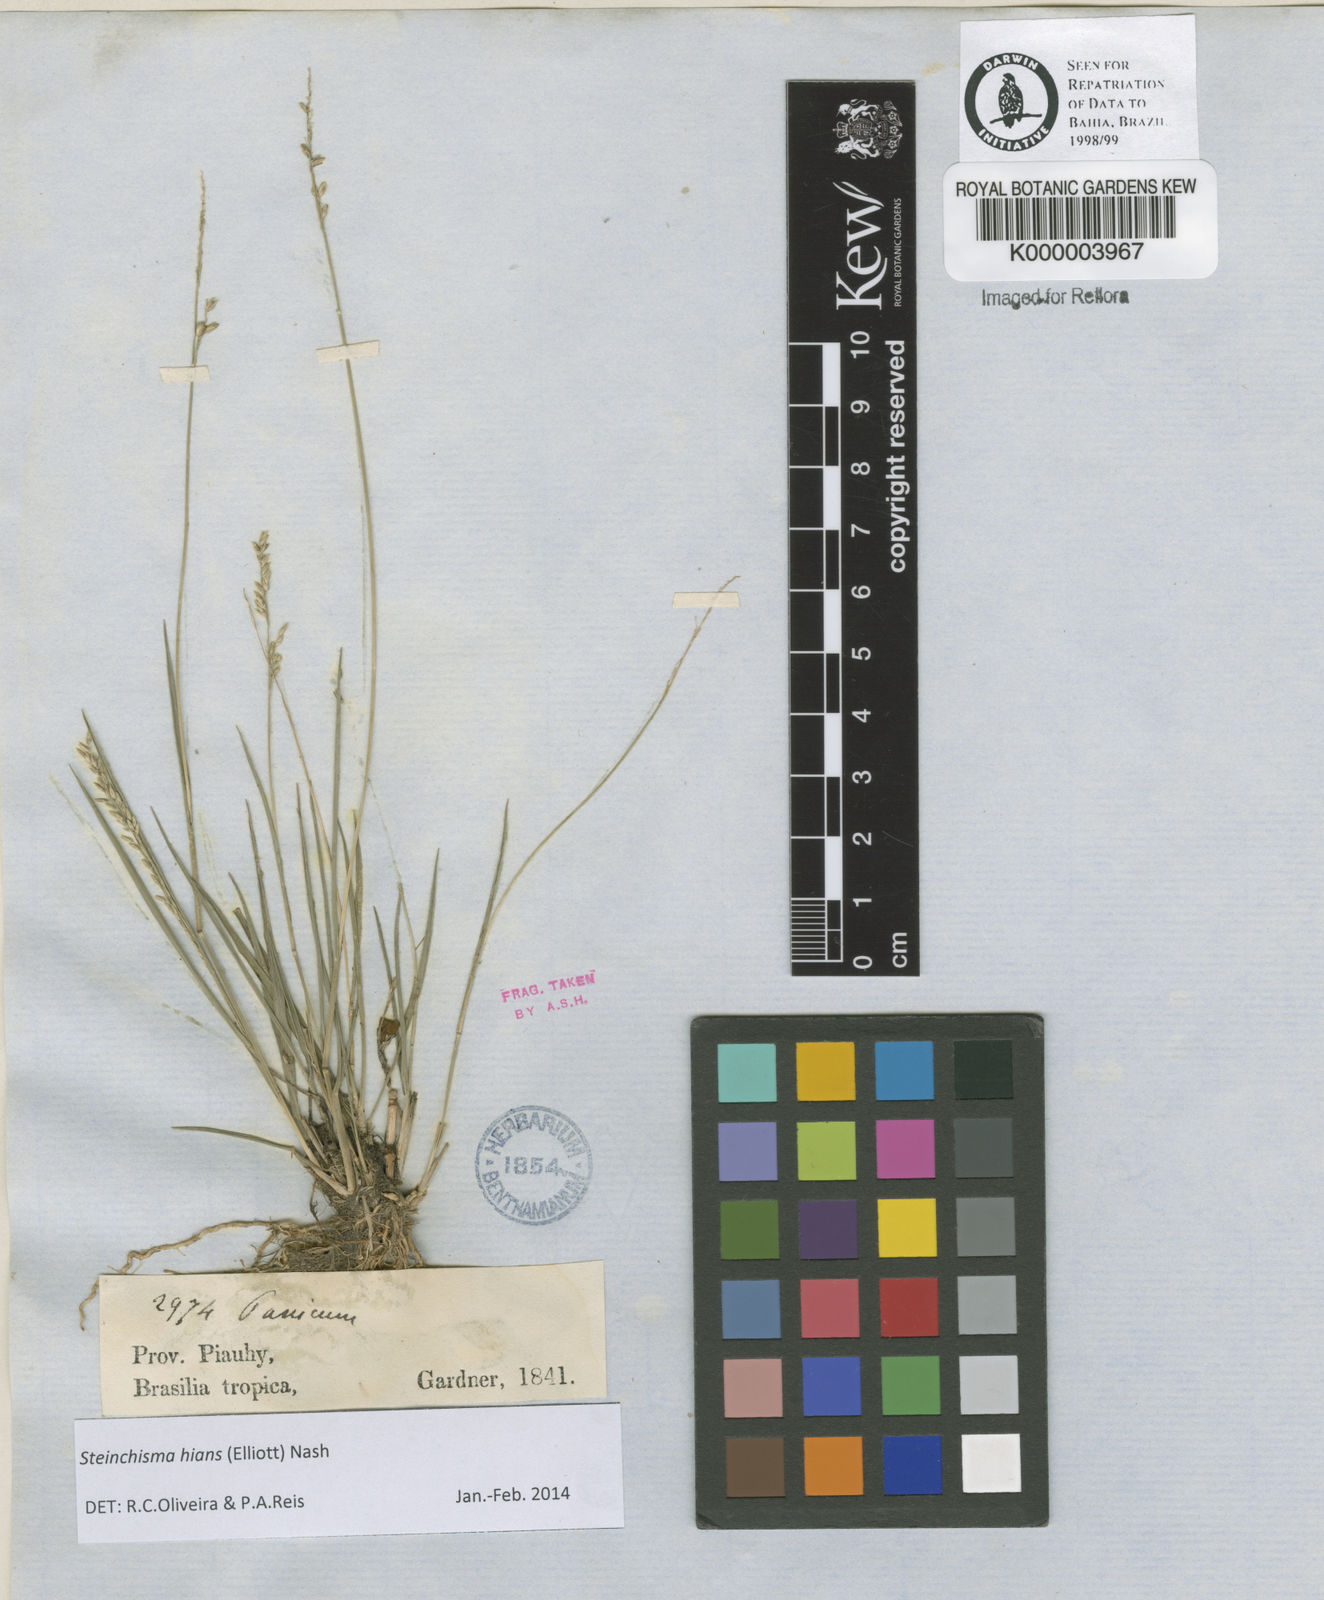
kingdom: Plantae
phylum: Tracheophyta
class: Liliopsida
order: Poales
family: Poaceae
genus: Steinchisma
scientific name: Steinchisma hians
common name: Gaping panic grass
